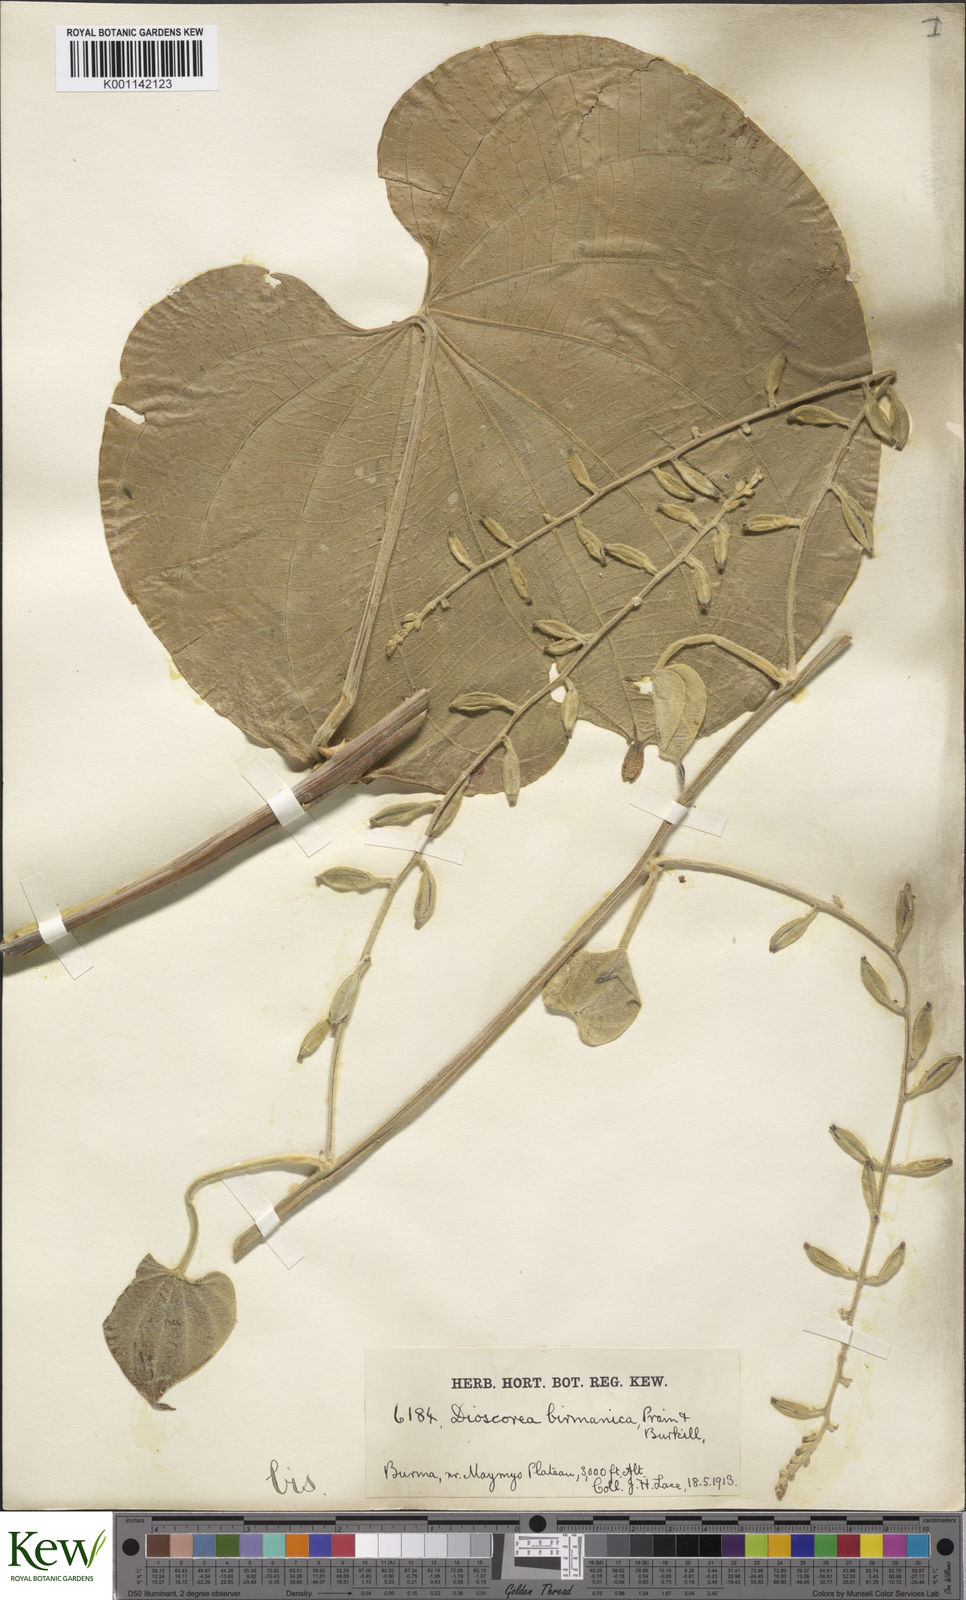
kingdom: Plantae
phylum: Tracheophyta
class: Liliopsida
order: Dioscoreales
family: Dioscoreaceae
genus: Dioscorea
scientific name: Dioscorea birmanica
